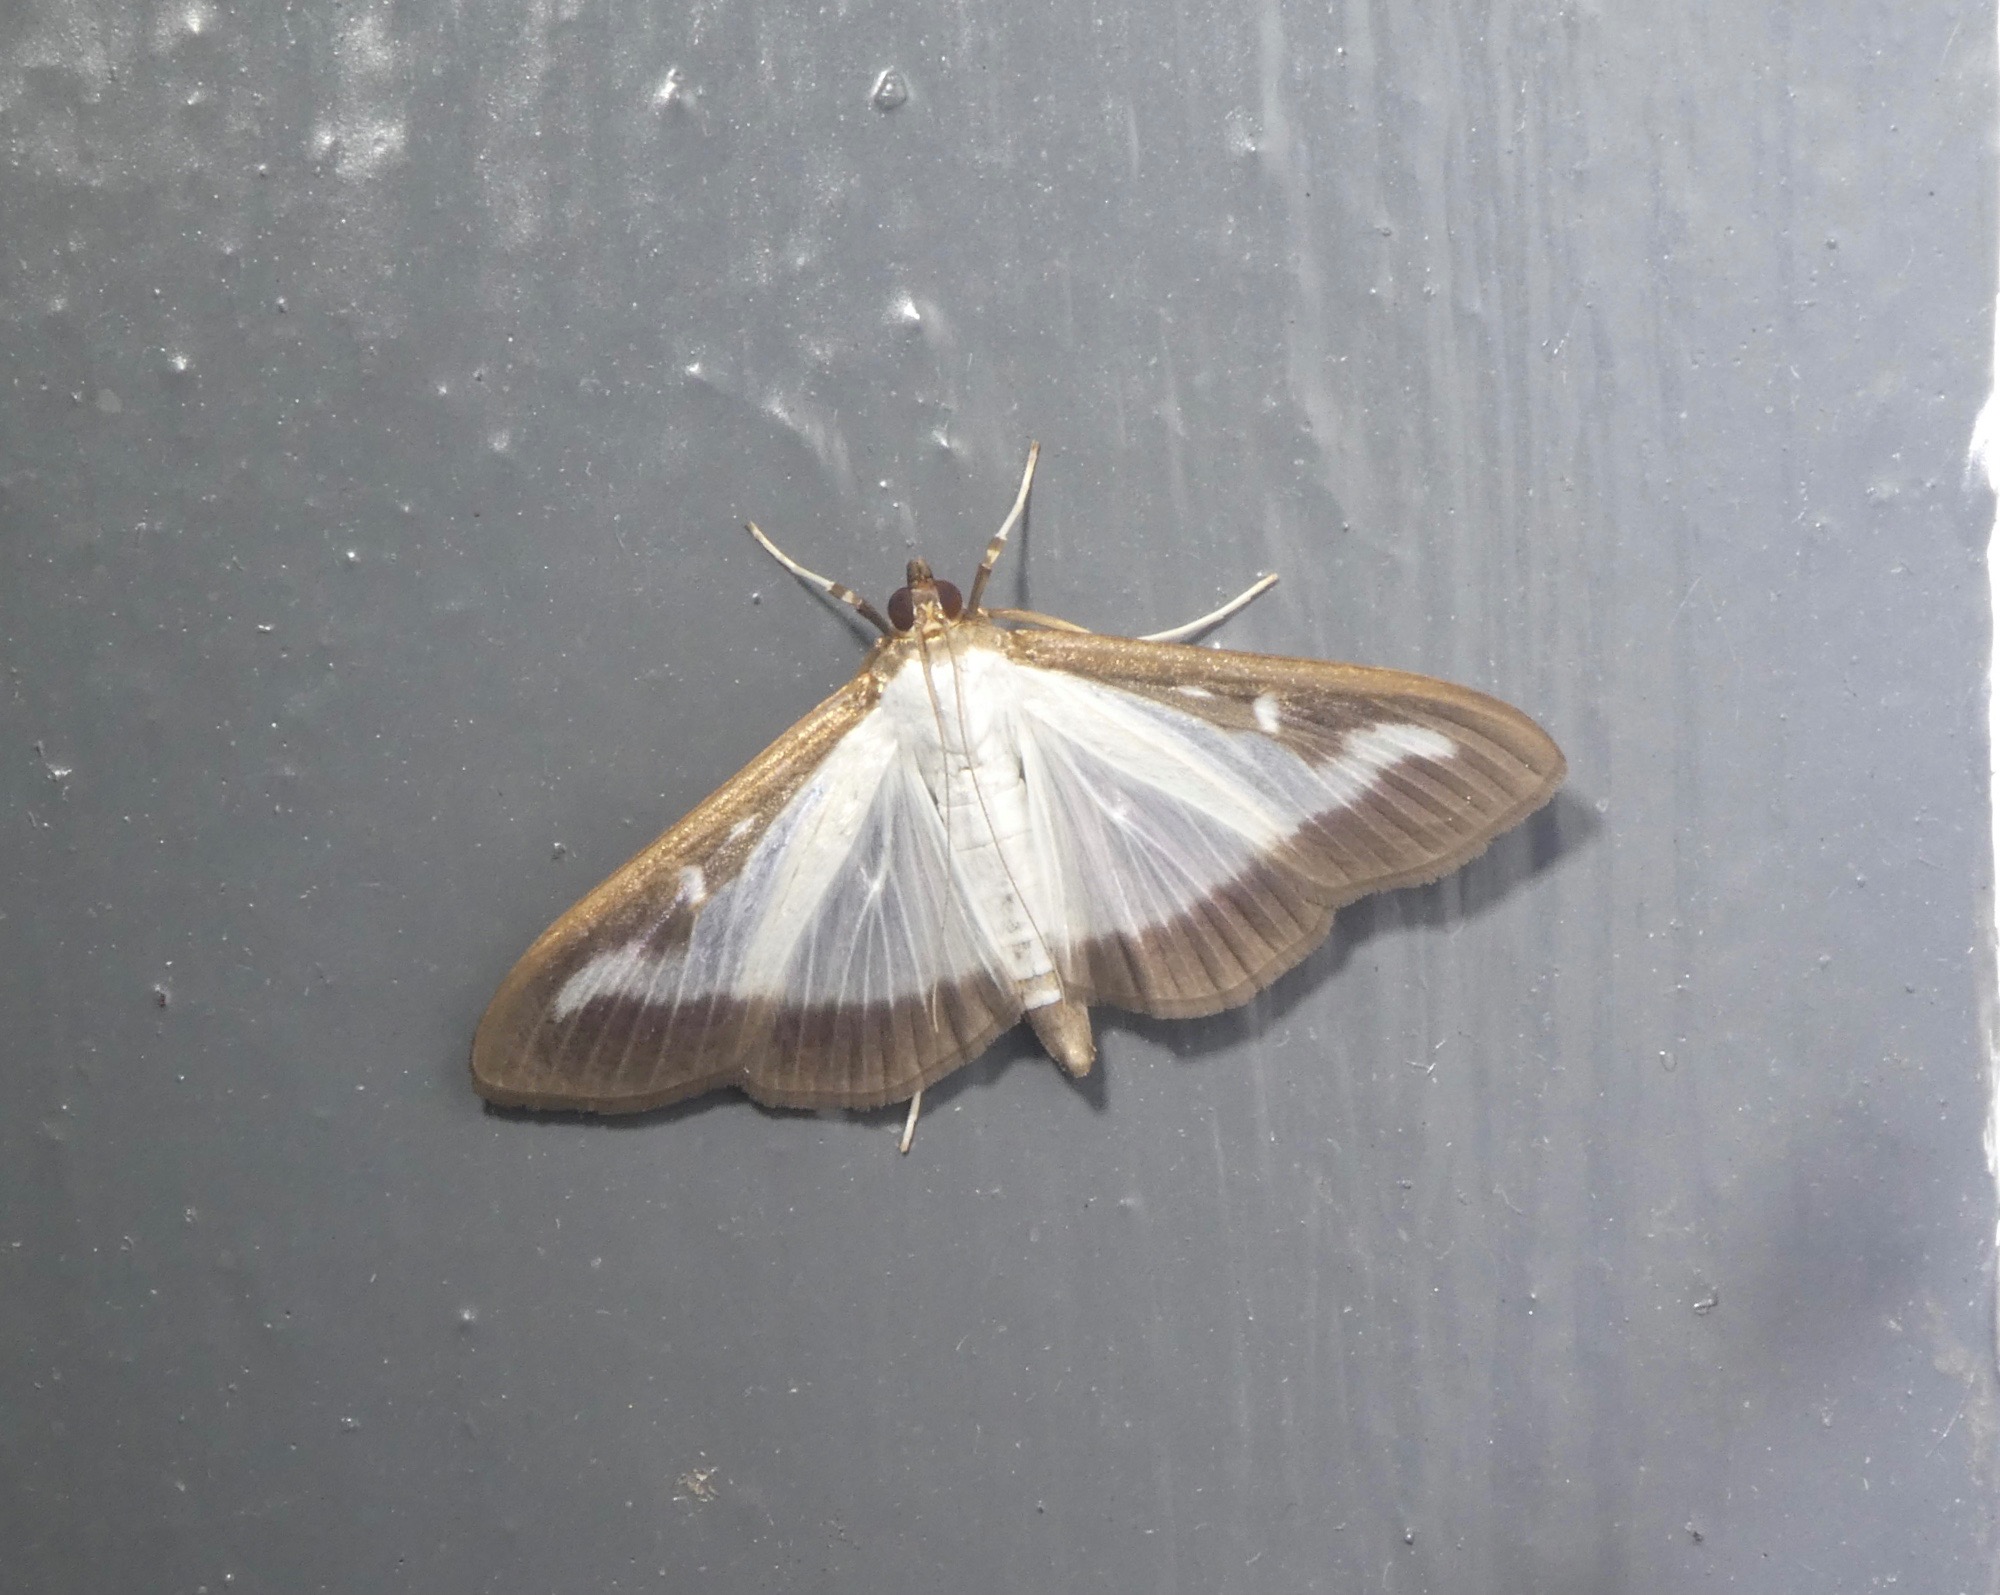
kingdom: Animalia
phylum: Arthropoda
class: Insecta
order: Lepidoptera
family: Crambidae
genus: Cydalima
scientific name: Cydalima perspectalis
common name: Buksbomhalvmøl
